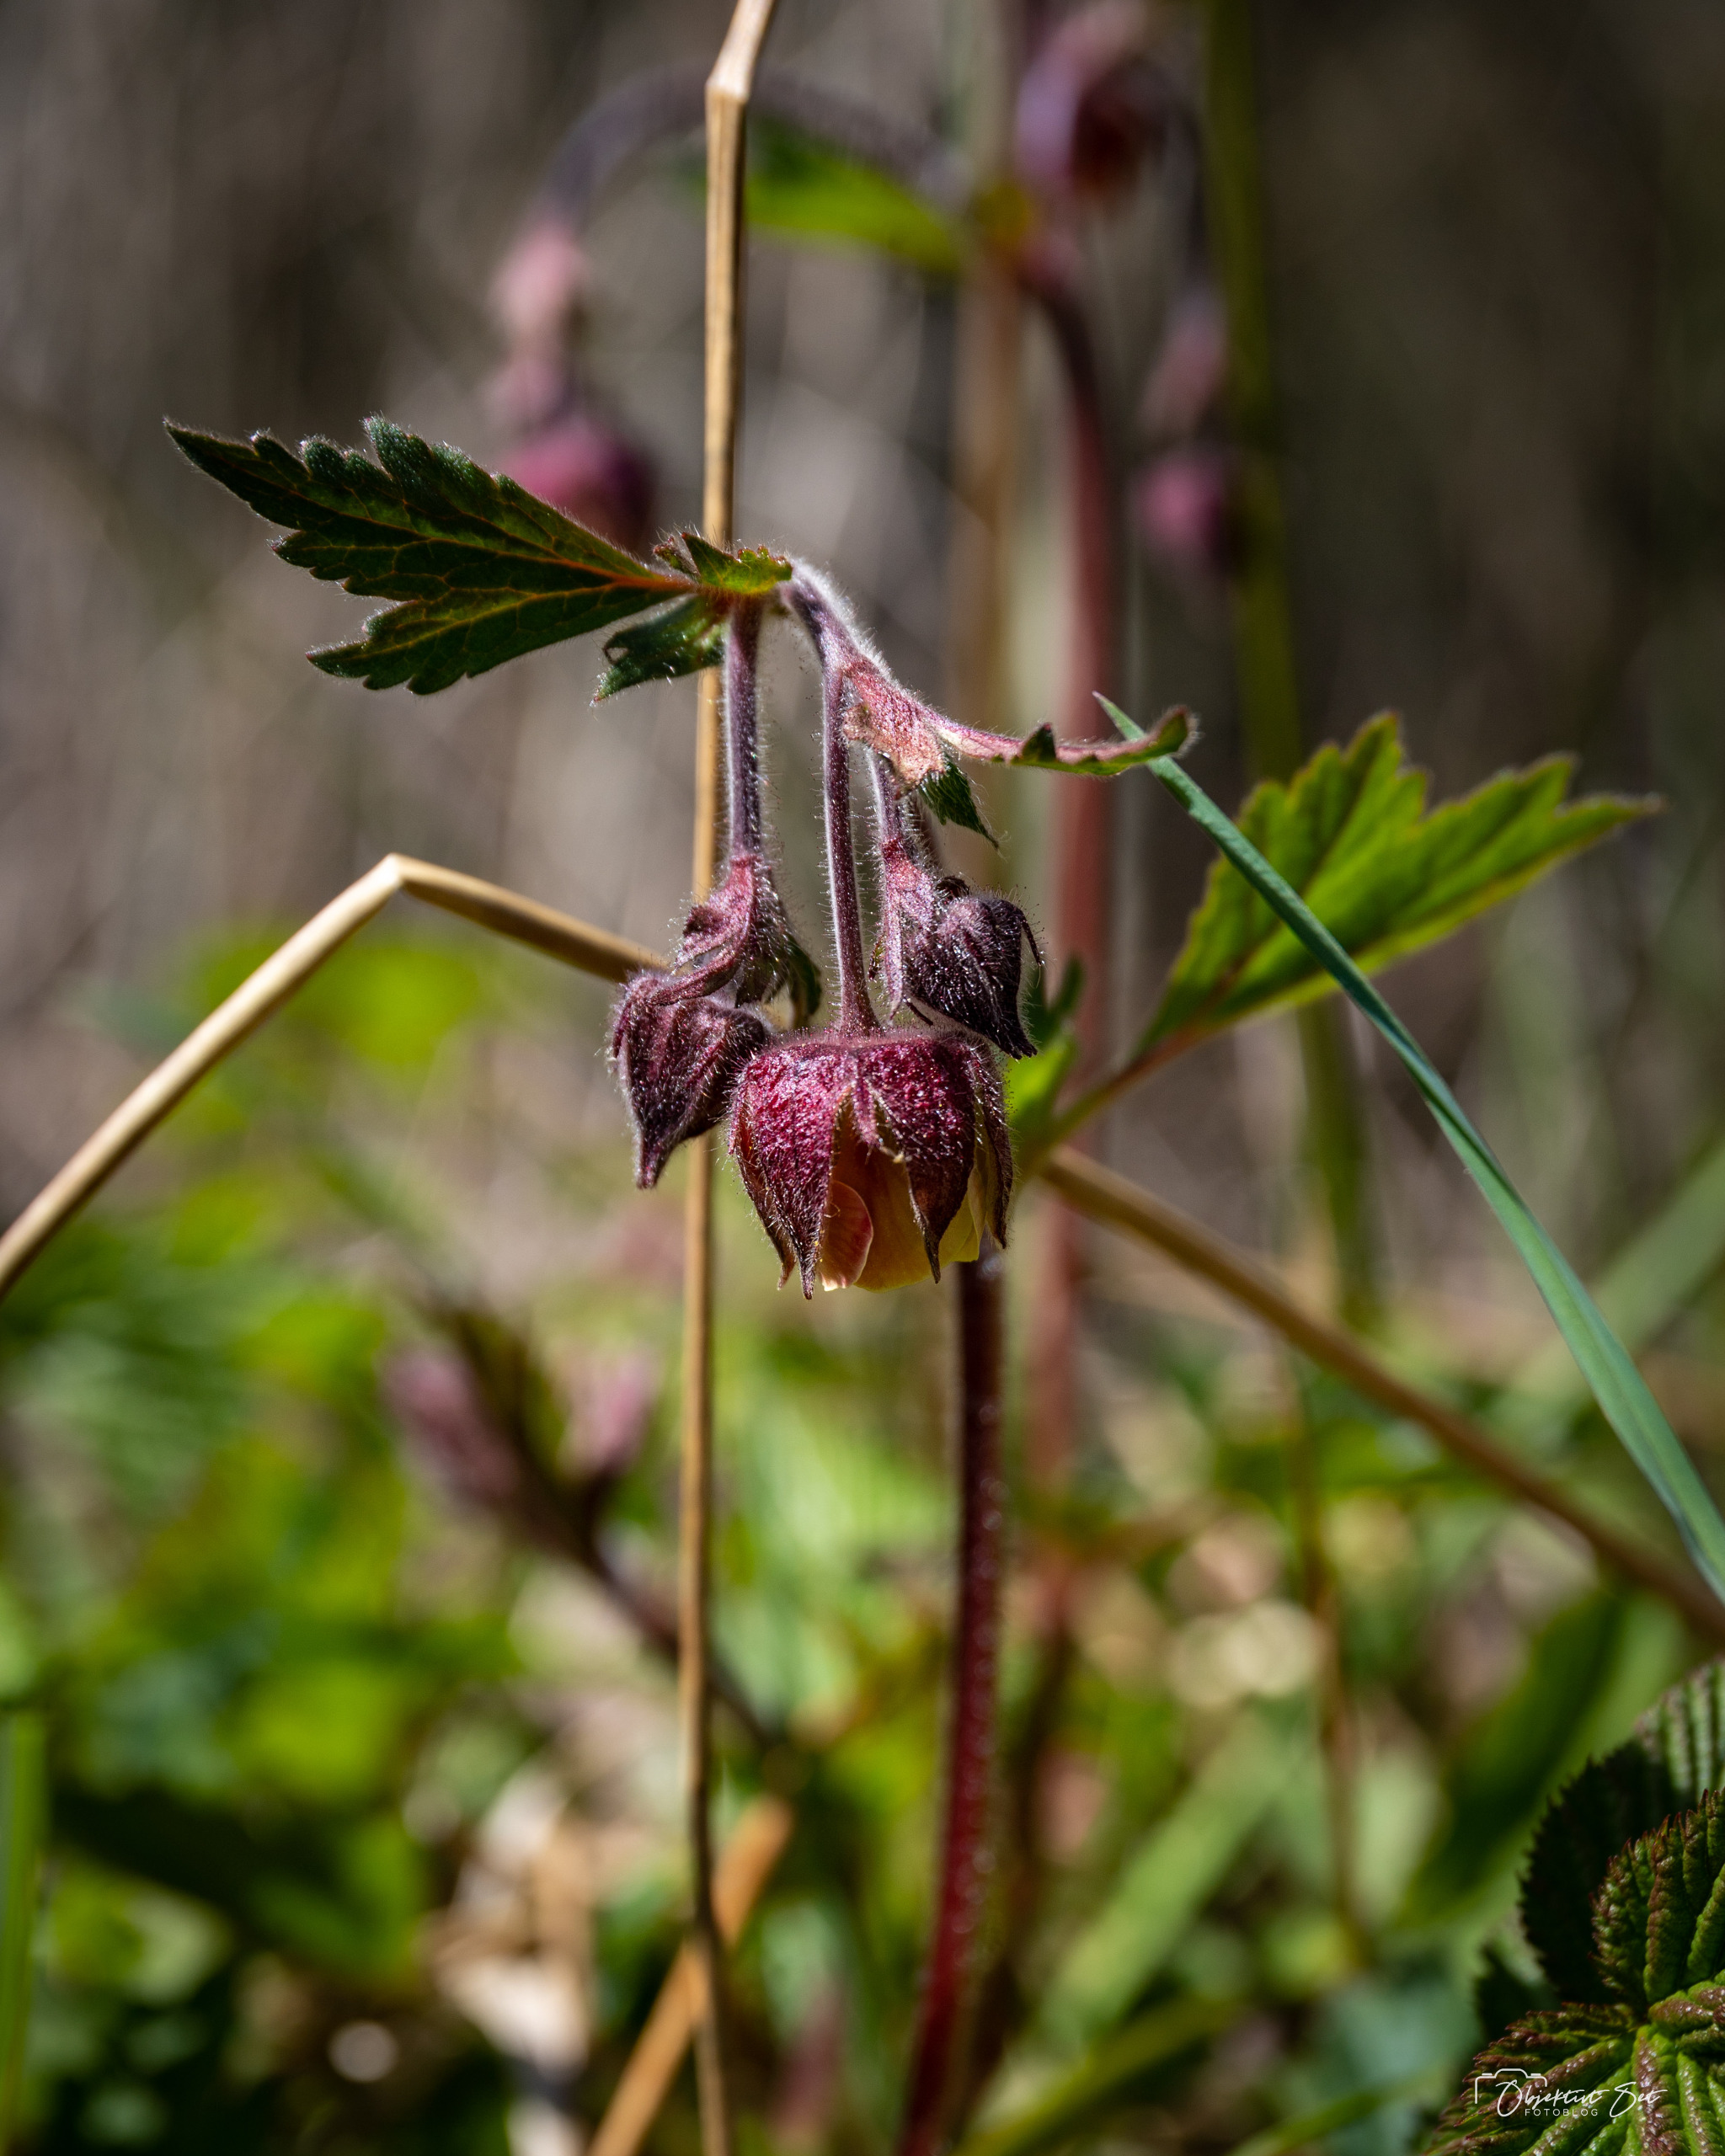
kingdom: Plantae
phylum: Tracheophyta
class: Magnoliopsida
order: Rosales
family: Rosaceae
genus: Geum
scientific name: Geum rivale
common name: Eng-nellikerod
